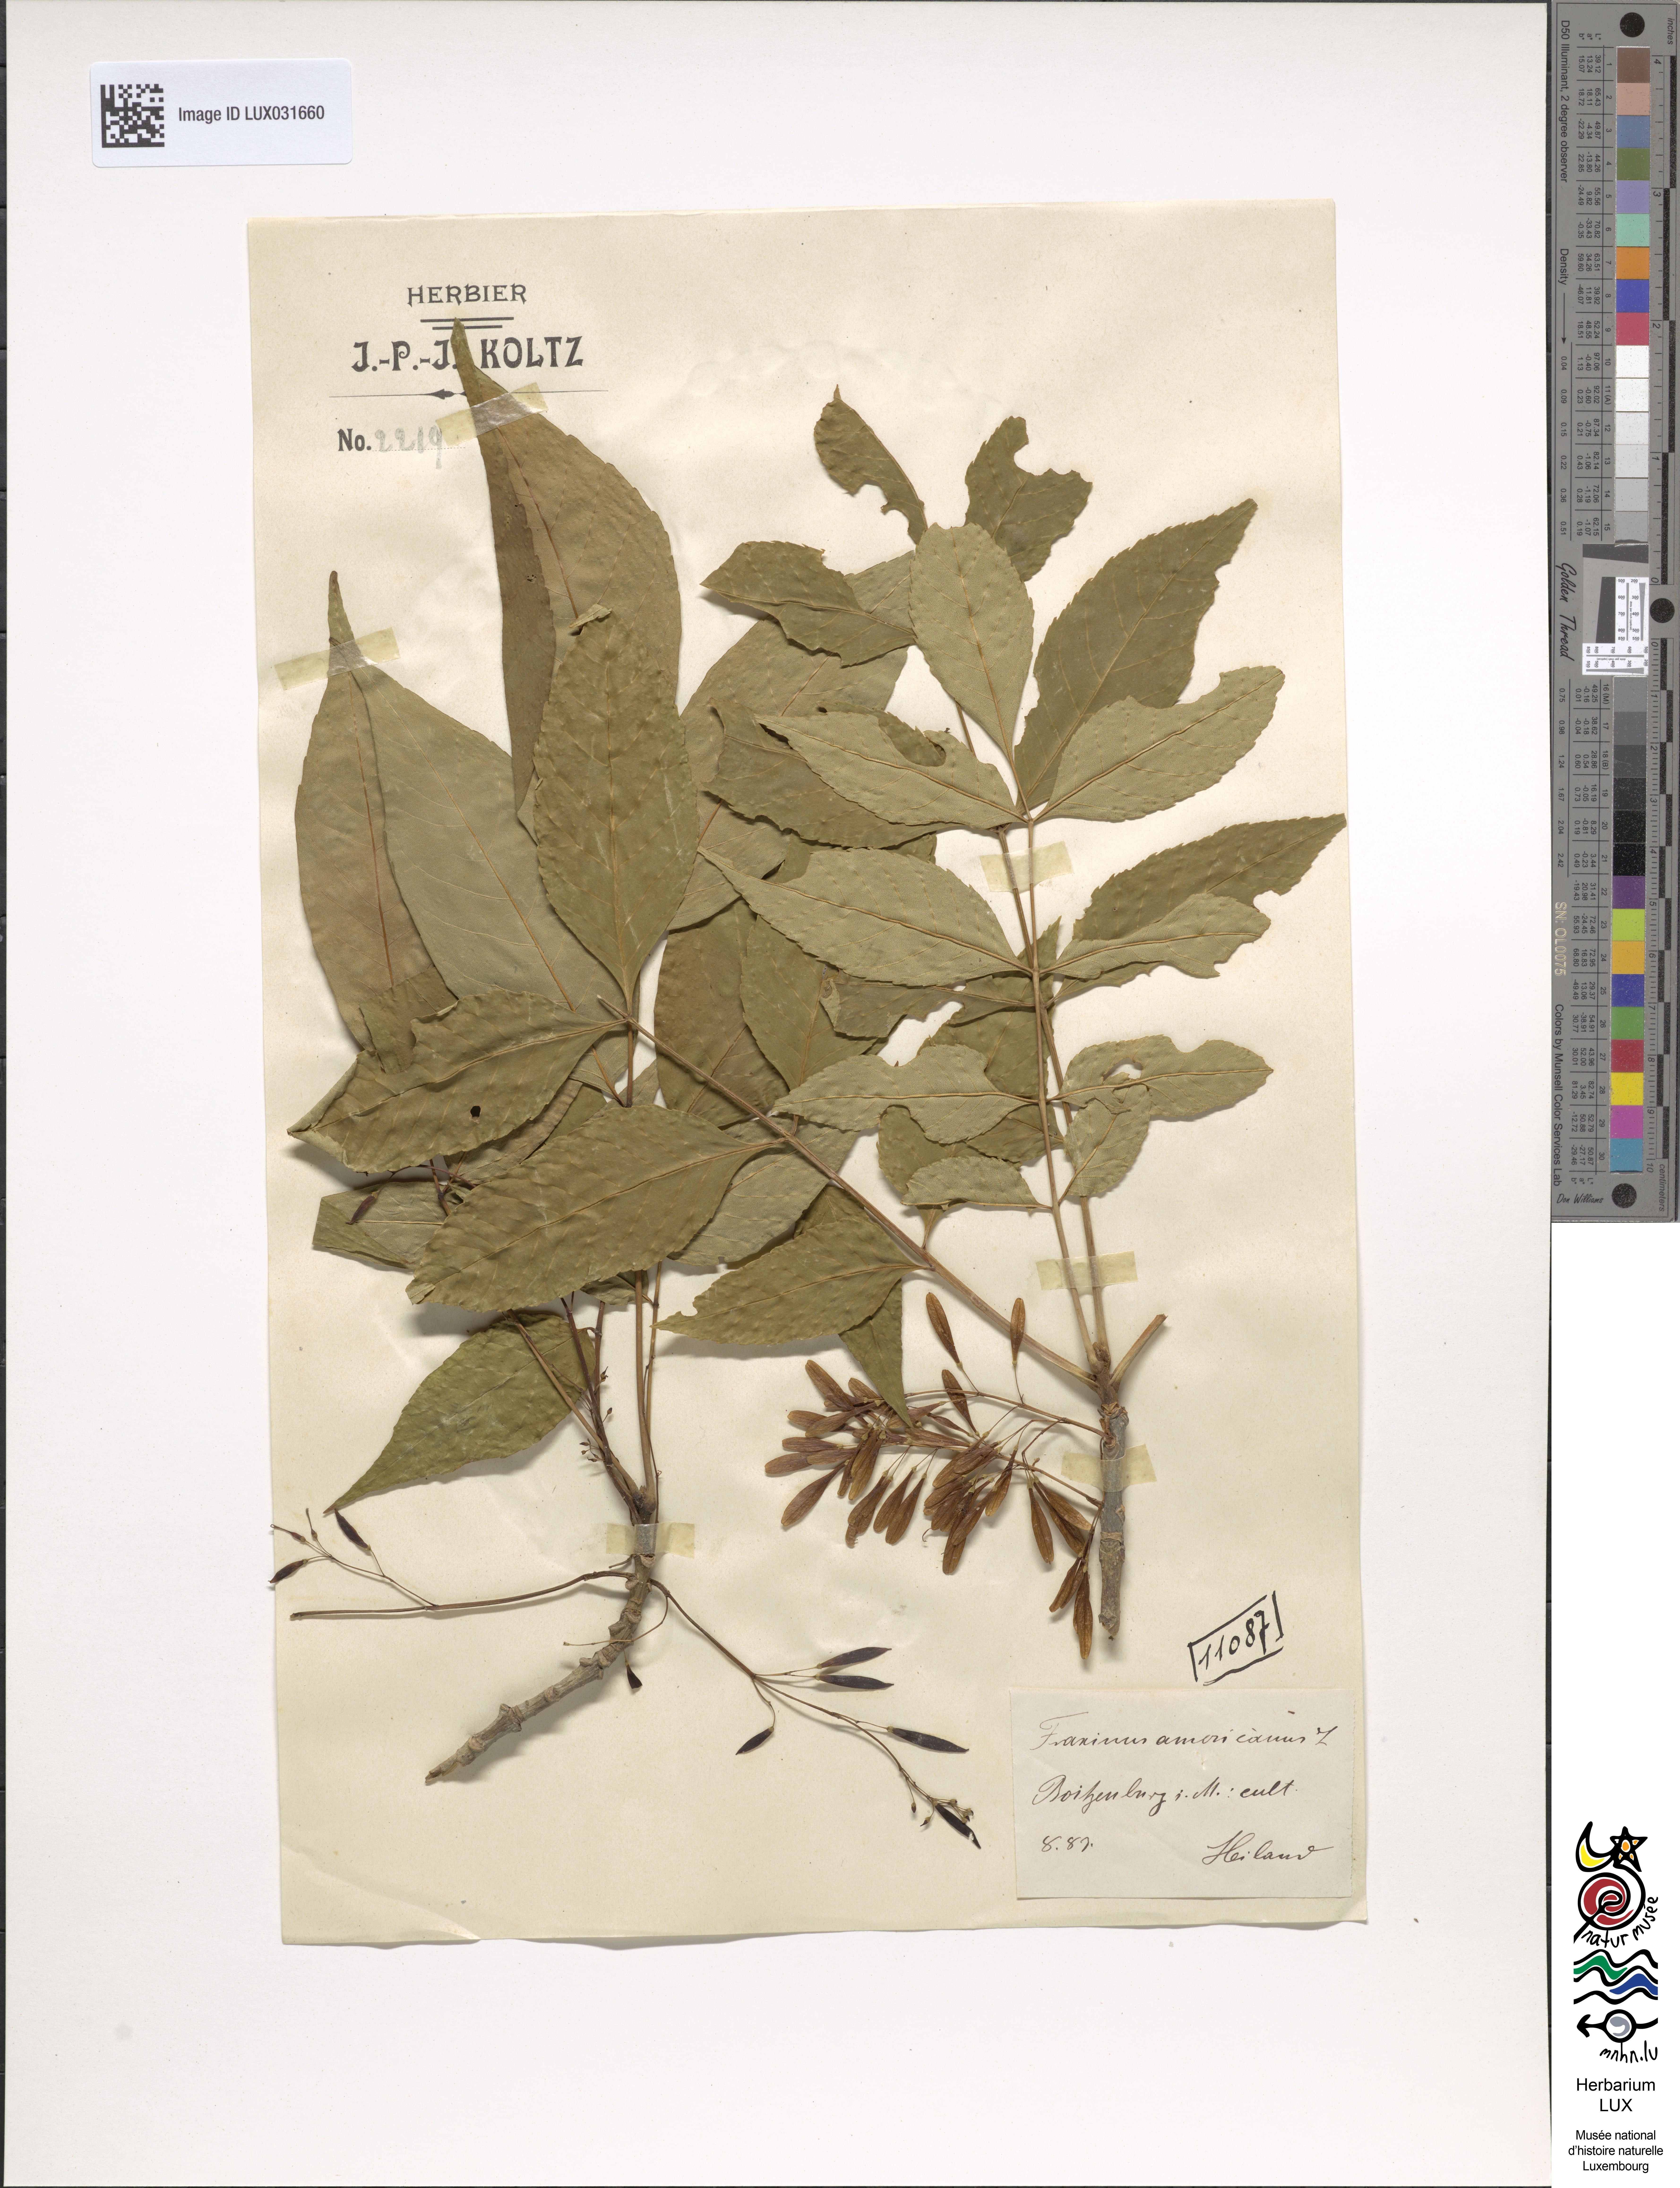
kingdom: Plantae
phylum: Tracheophyta
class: Magnoliopsida
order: Lamiales
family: Oleaceae
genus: Fraxinus
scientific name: Fraxinus americana
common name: White ash
